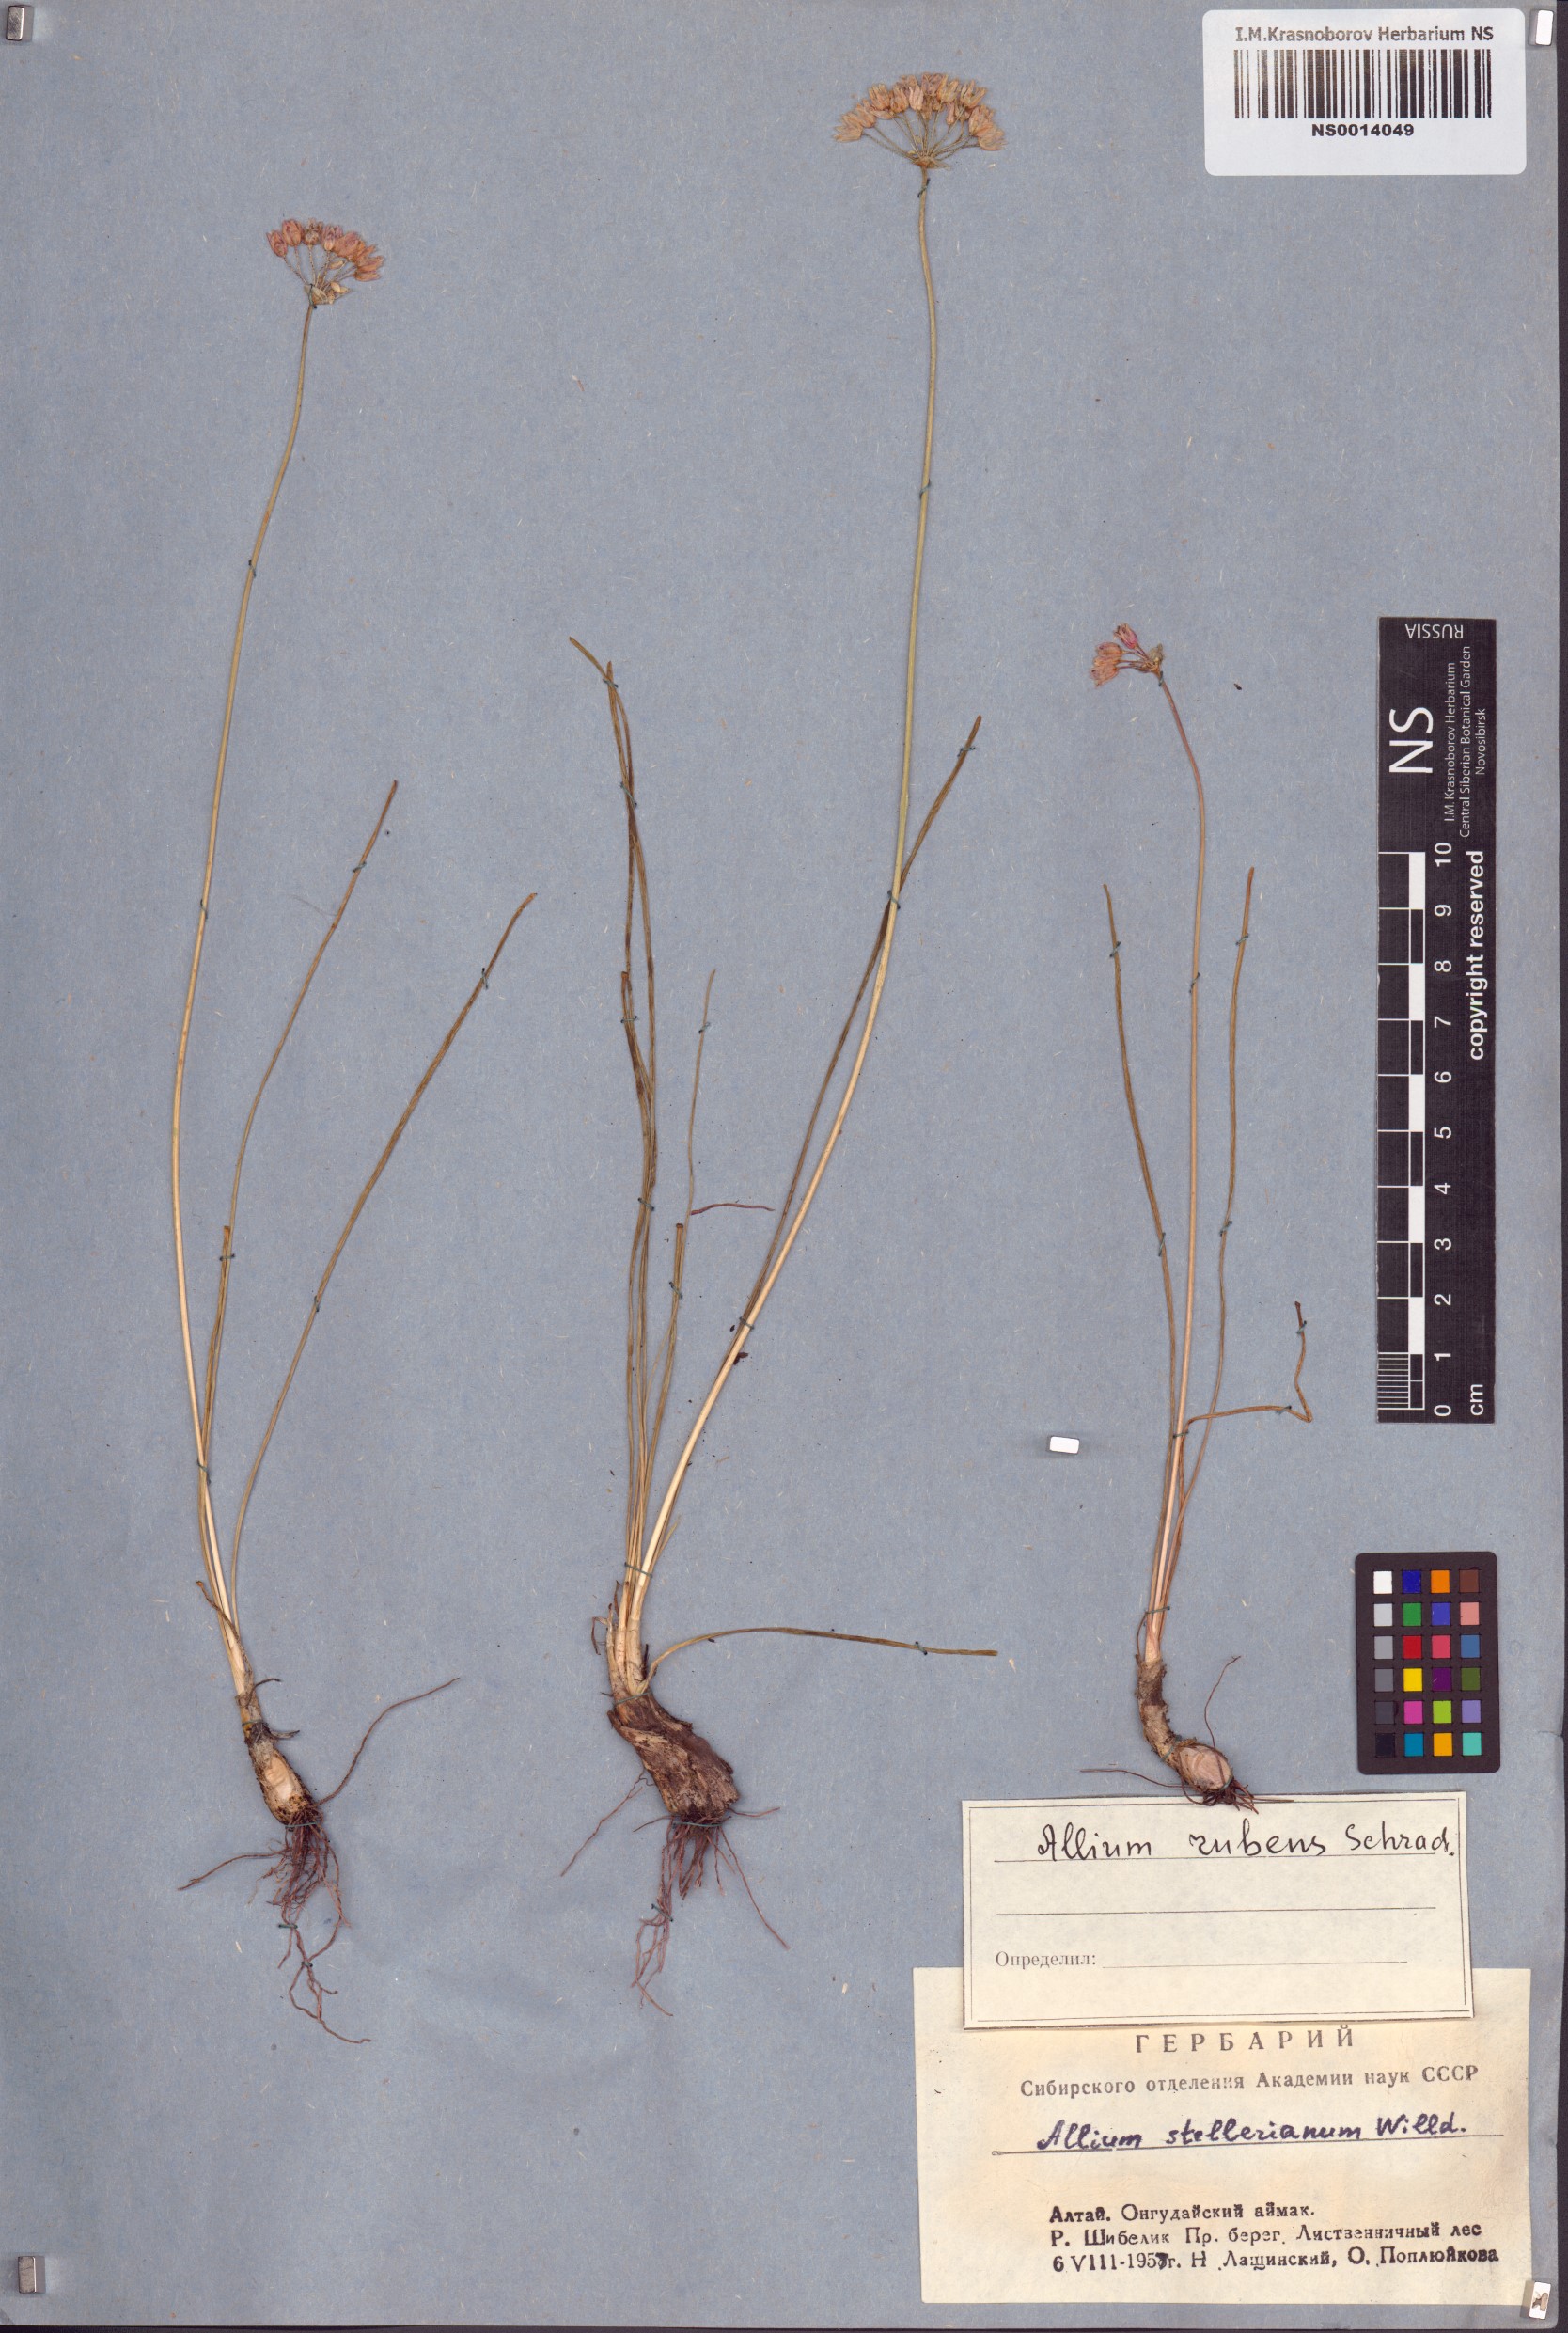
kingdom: Plantae
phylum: Tracheophyta
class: Liliopsida
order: Asparagales
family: Amaryllidaceae
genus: Allium
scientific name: Allium rubens
